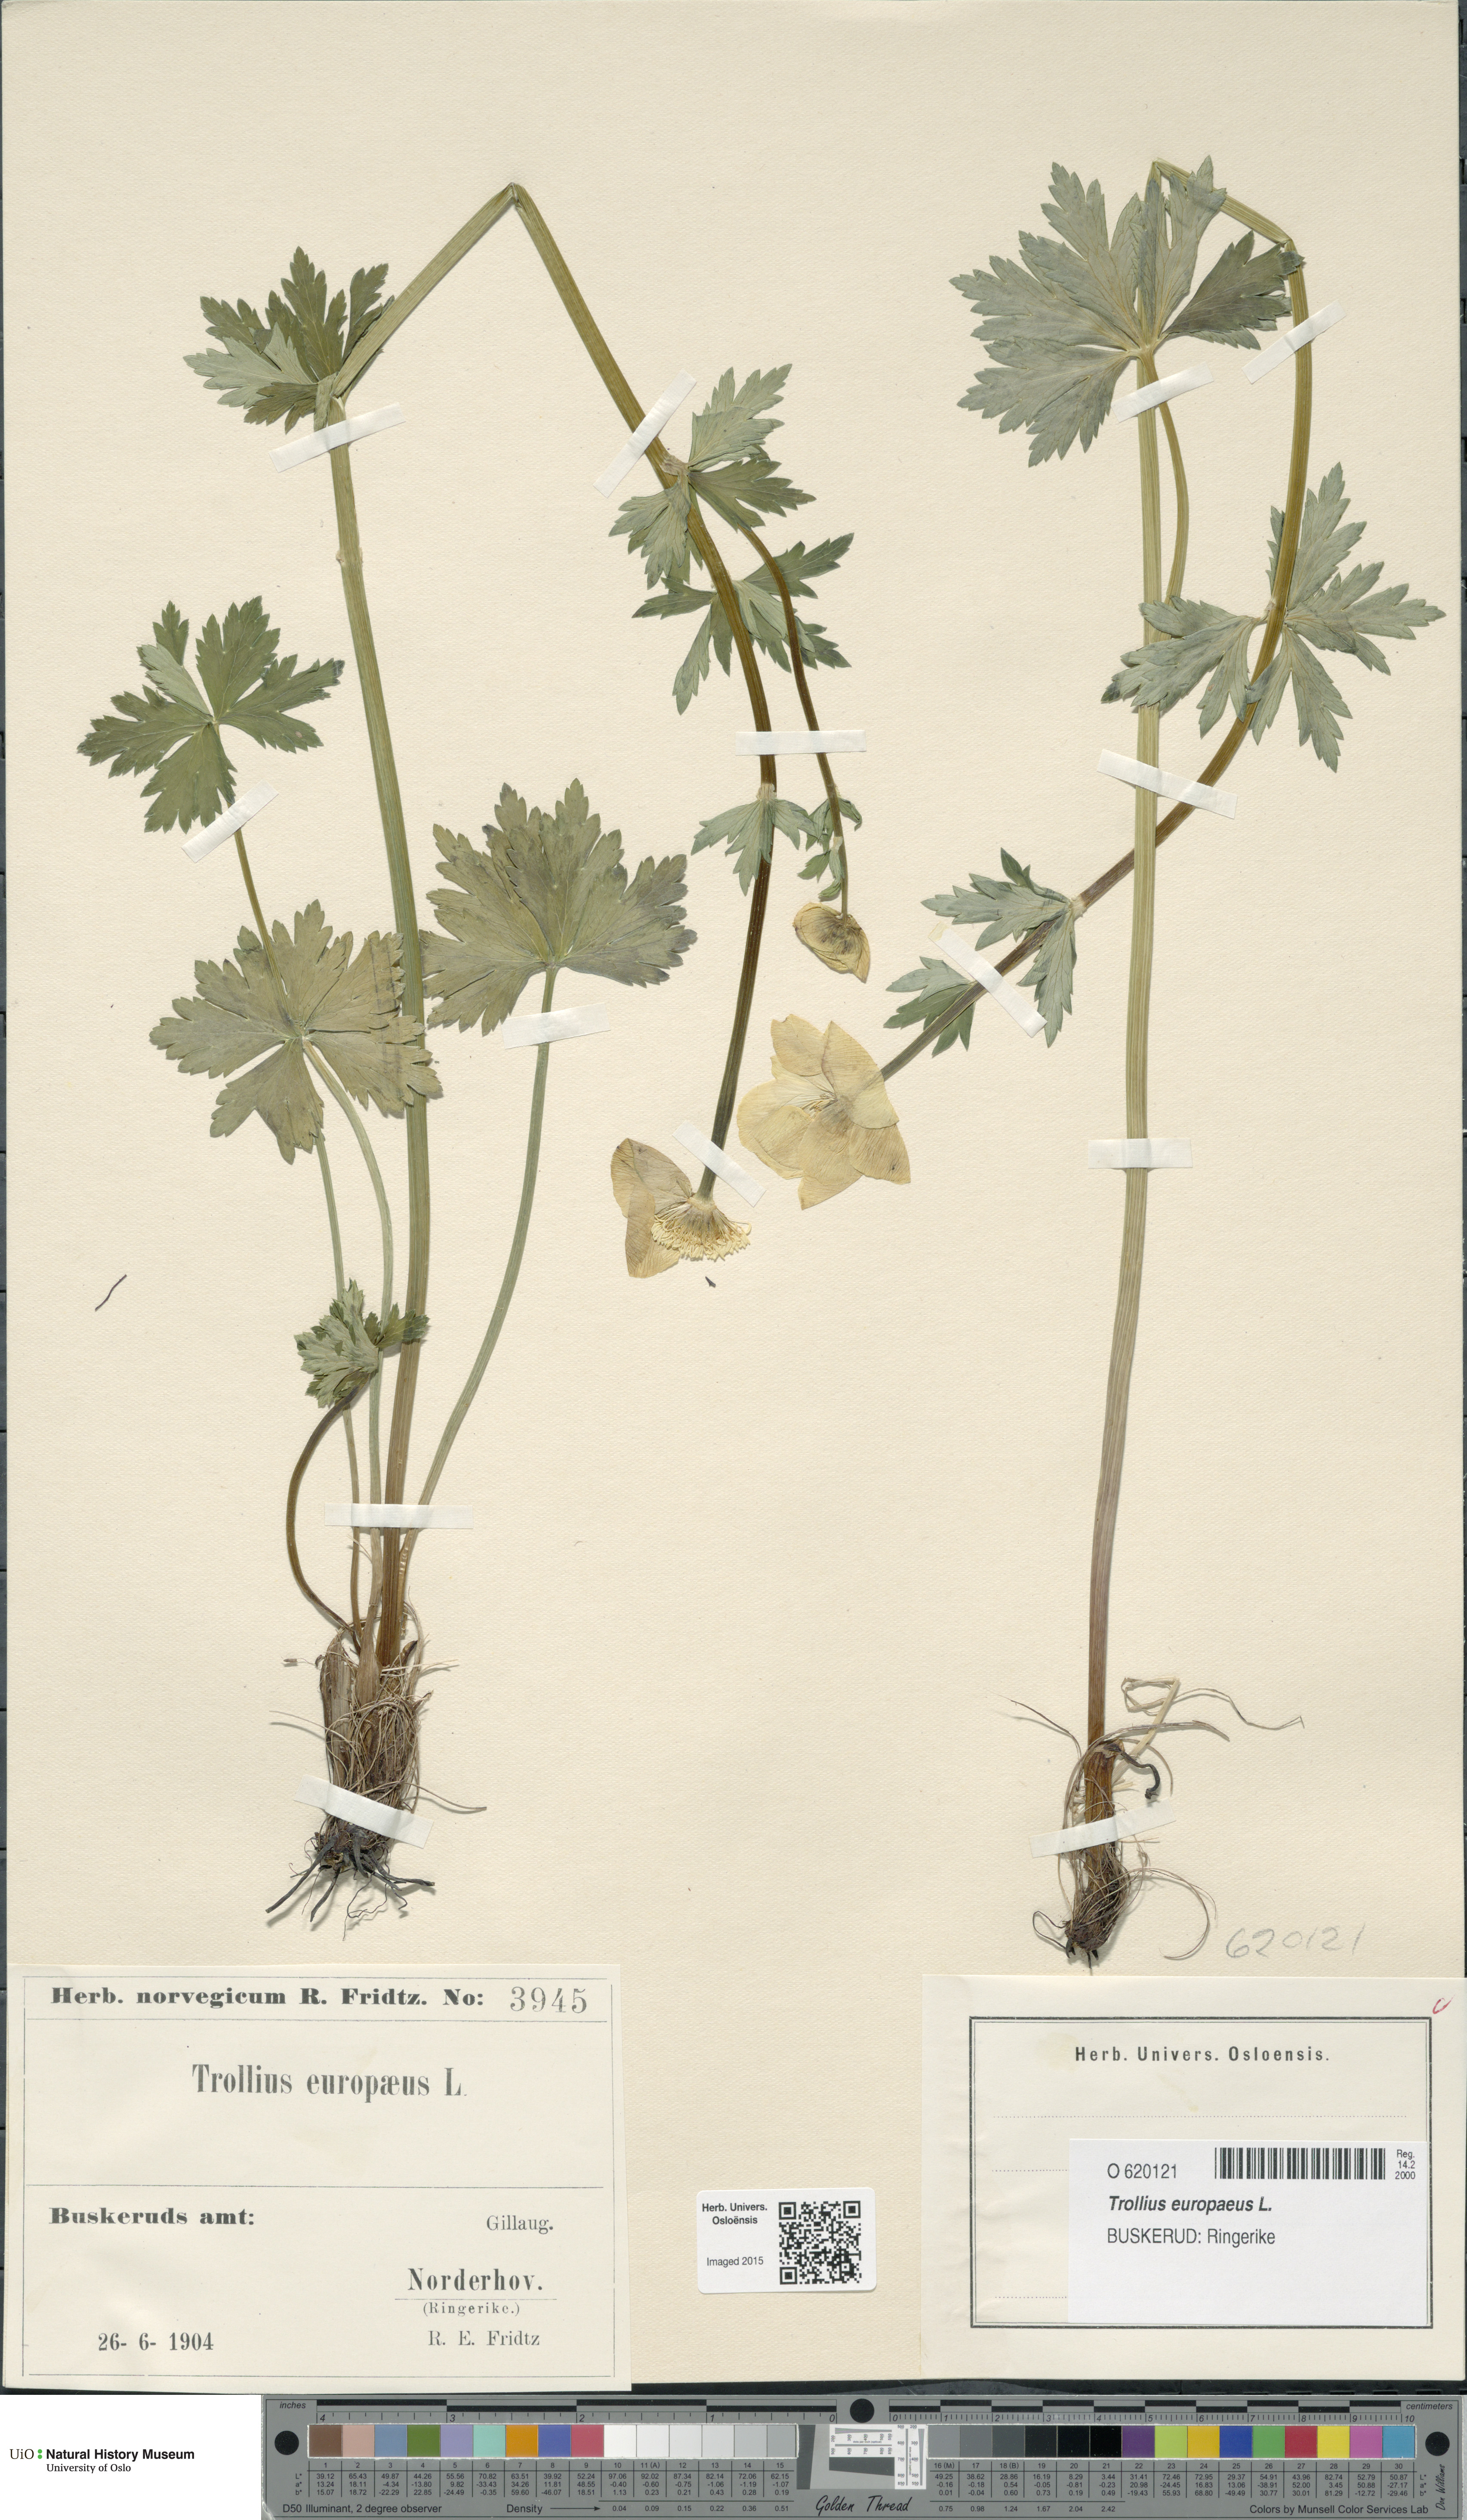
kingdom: Plantae
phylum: Tracheophyta
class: Magnoliopsida
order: Ranunculales
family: Ranunculaceae
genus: Trollius
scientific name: Trollius europaeus
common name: European globeflower
